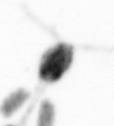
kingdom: Animalia
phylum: Arthropoda
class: Copepoda
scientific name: Copepoda
